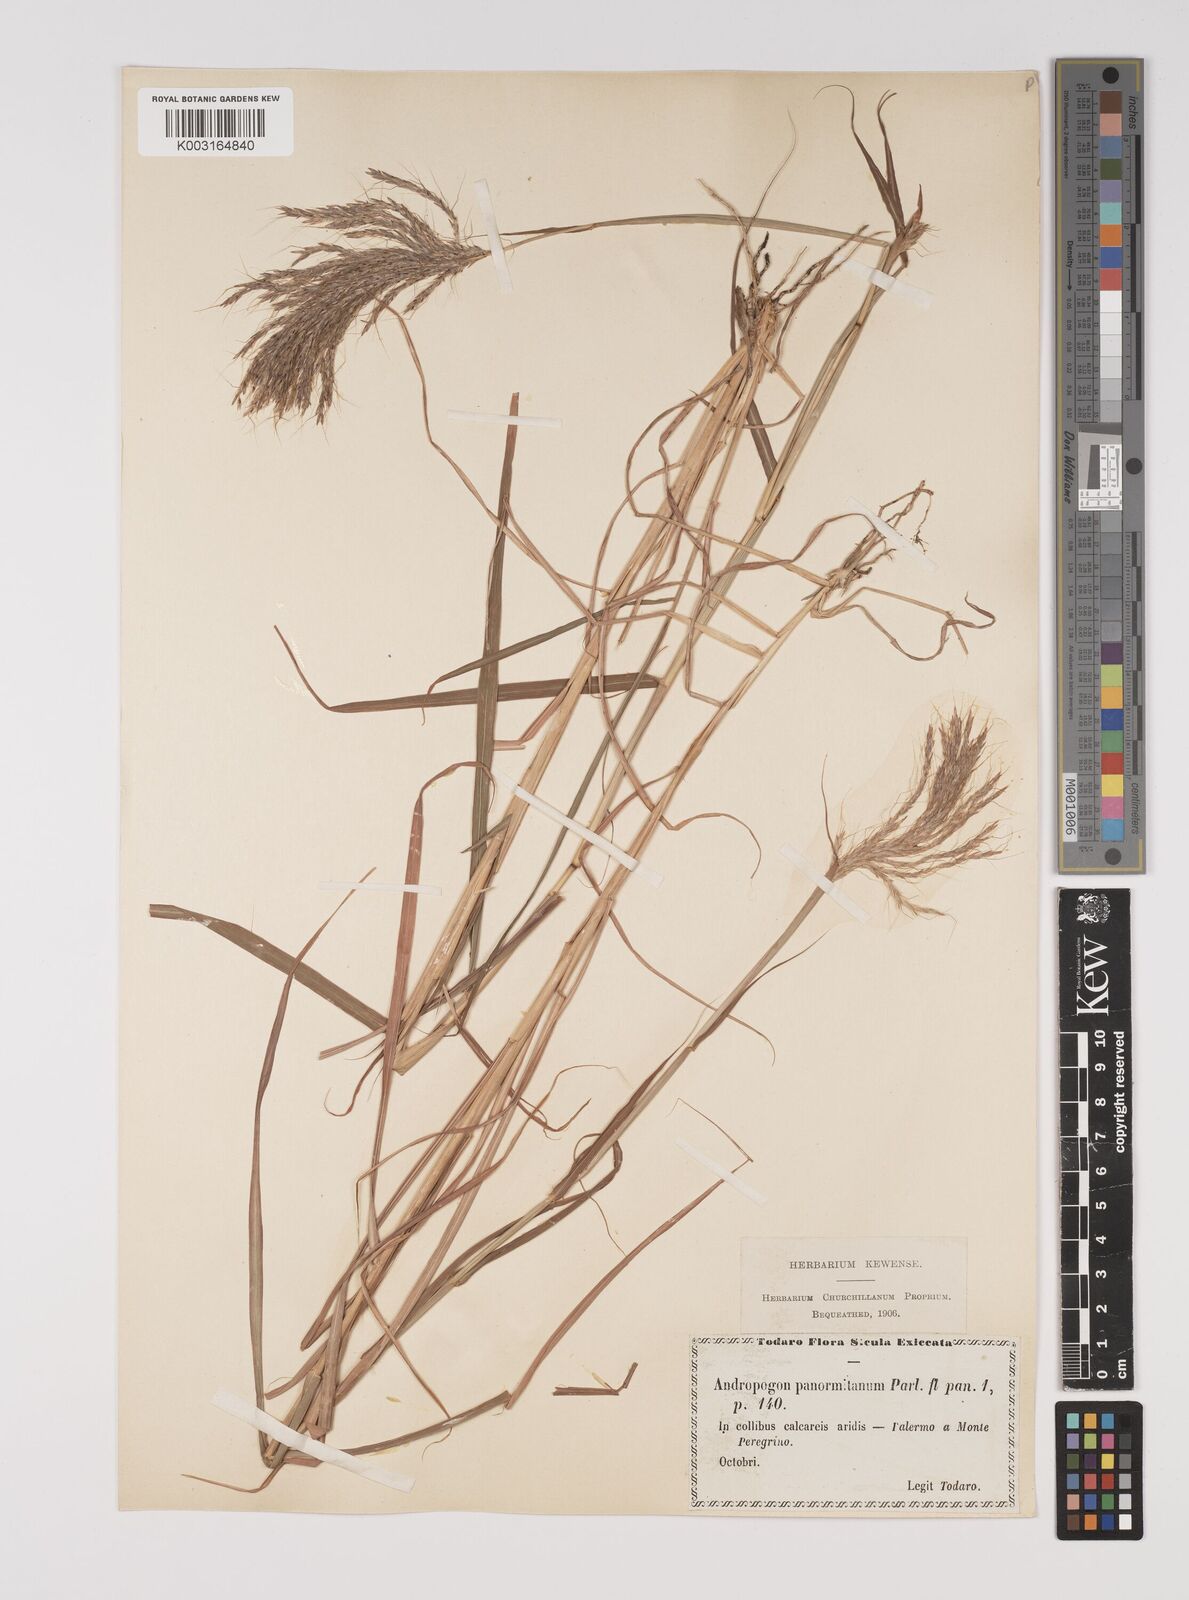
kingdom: Plantae
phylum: Tracheophyta
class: Liliopsida
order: Poales
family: Poaceae
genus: Bothriochloa
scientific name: Bothriochloa insculpta
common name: Creeping-bluegrass
